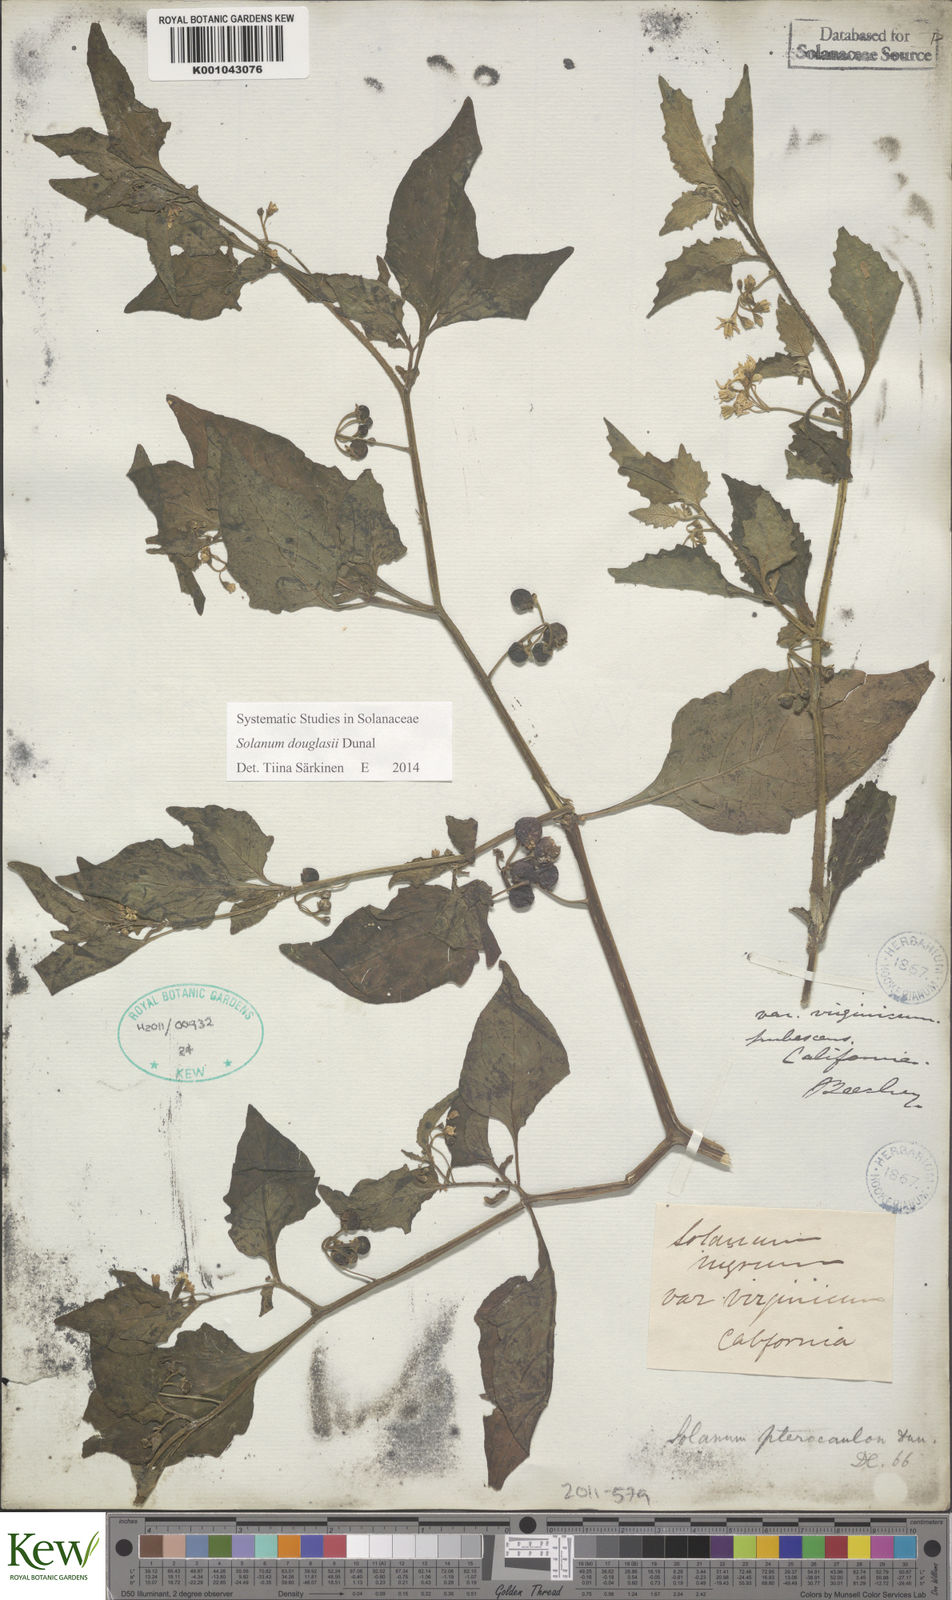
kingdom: Plantae
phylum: Tracheophyta
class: Magnoliopsida
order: Solanales
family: Solanaceae
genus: Solanum
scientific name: Solanum douglasii
